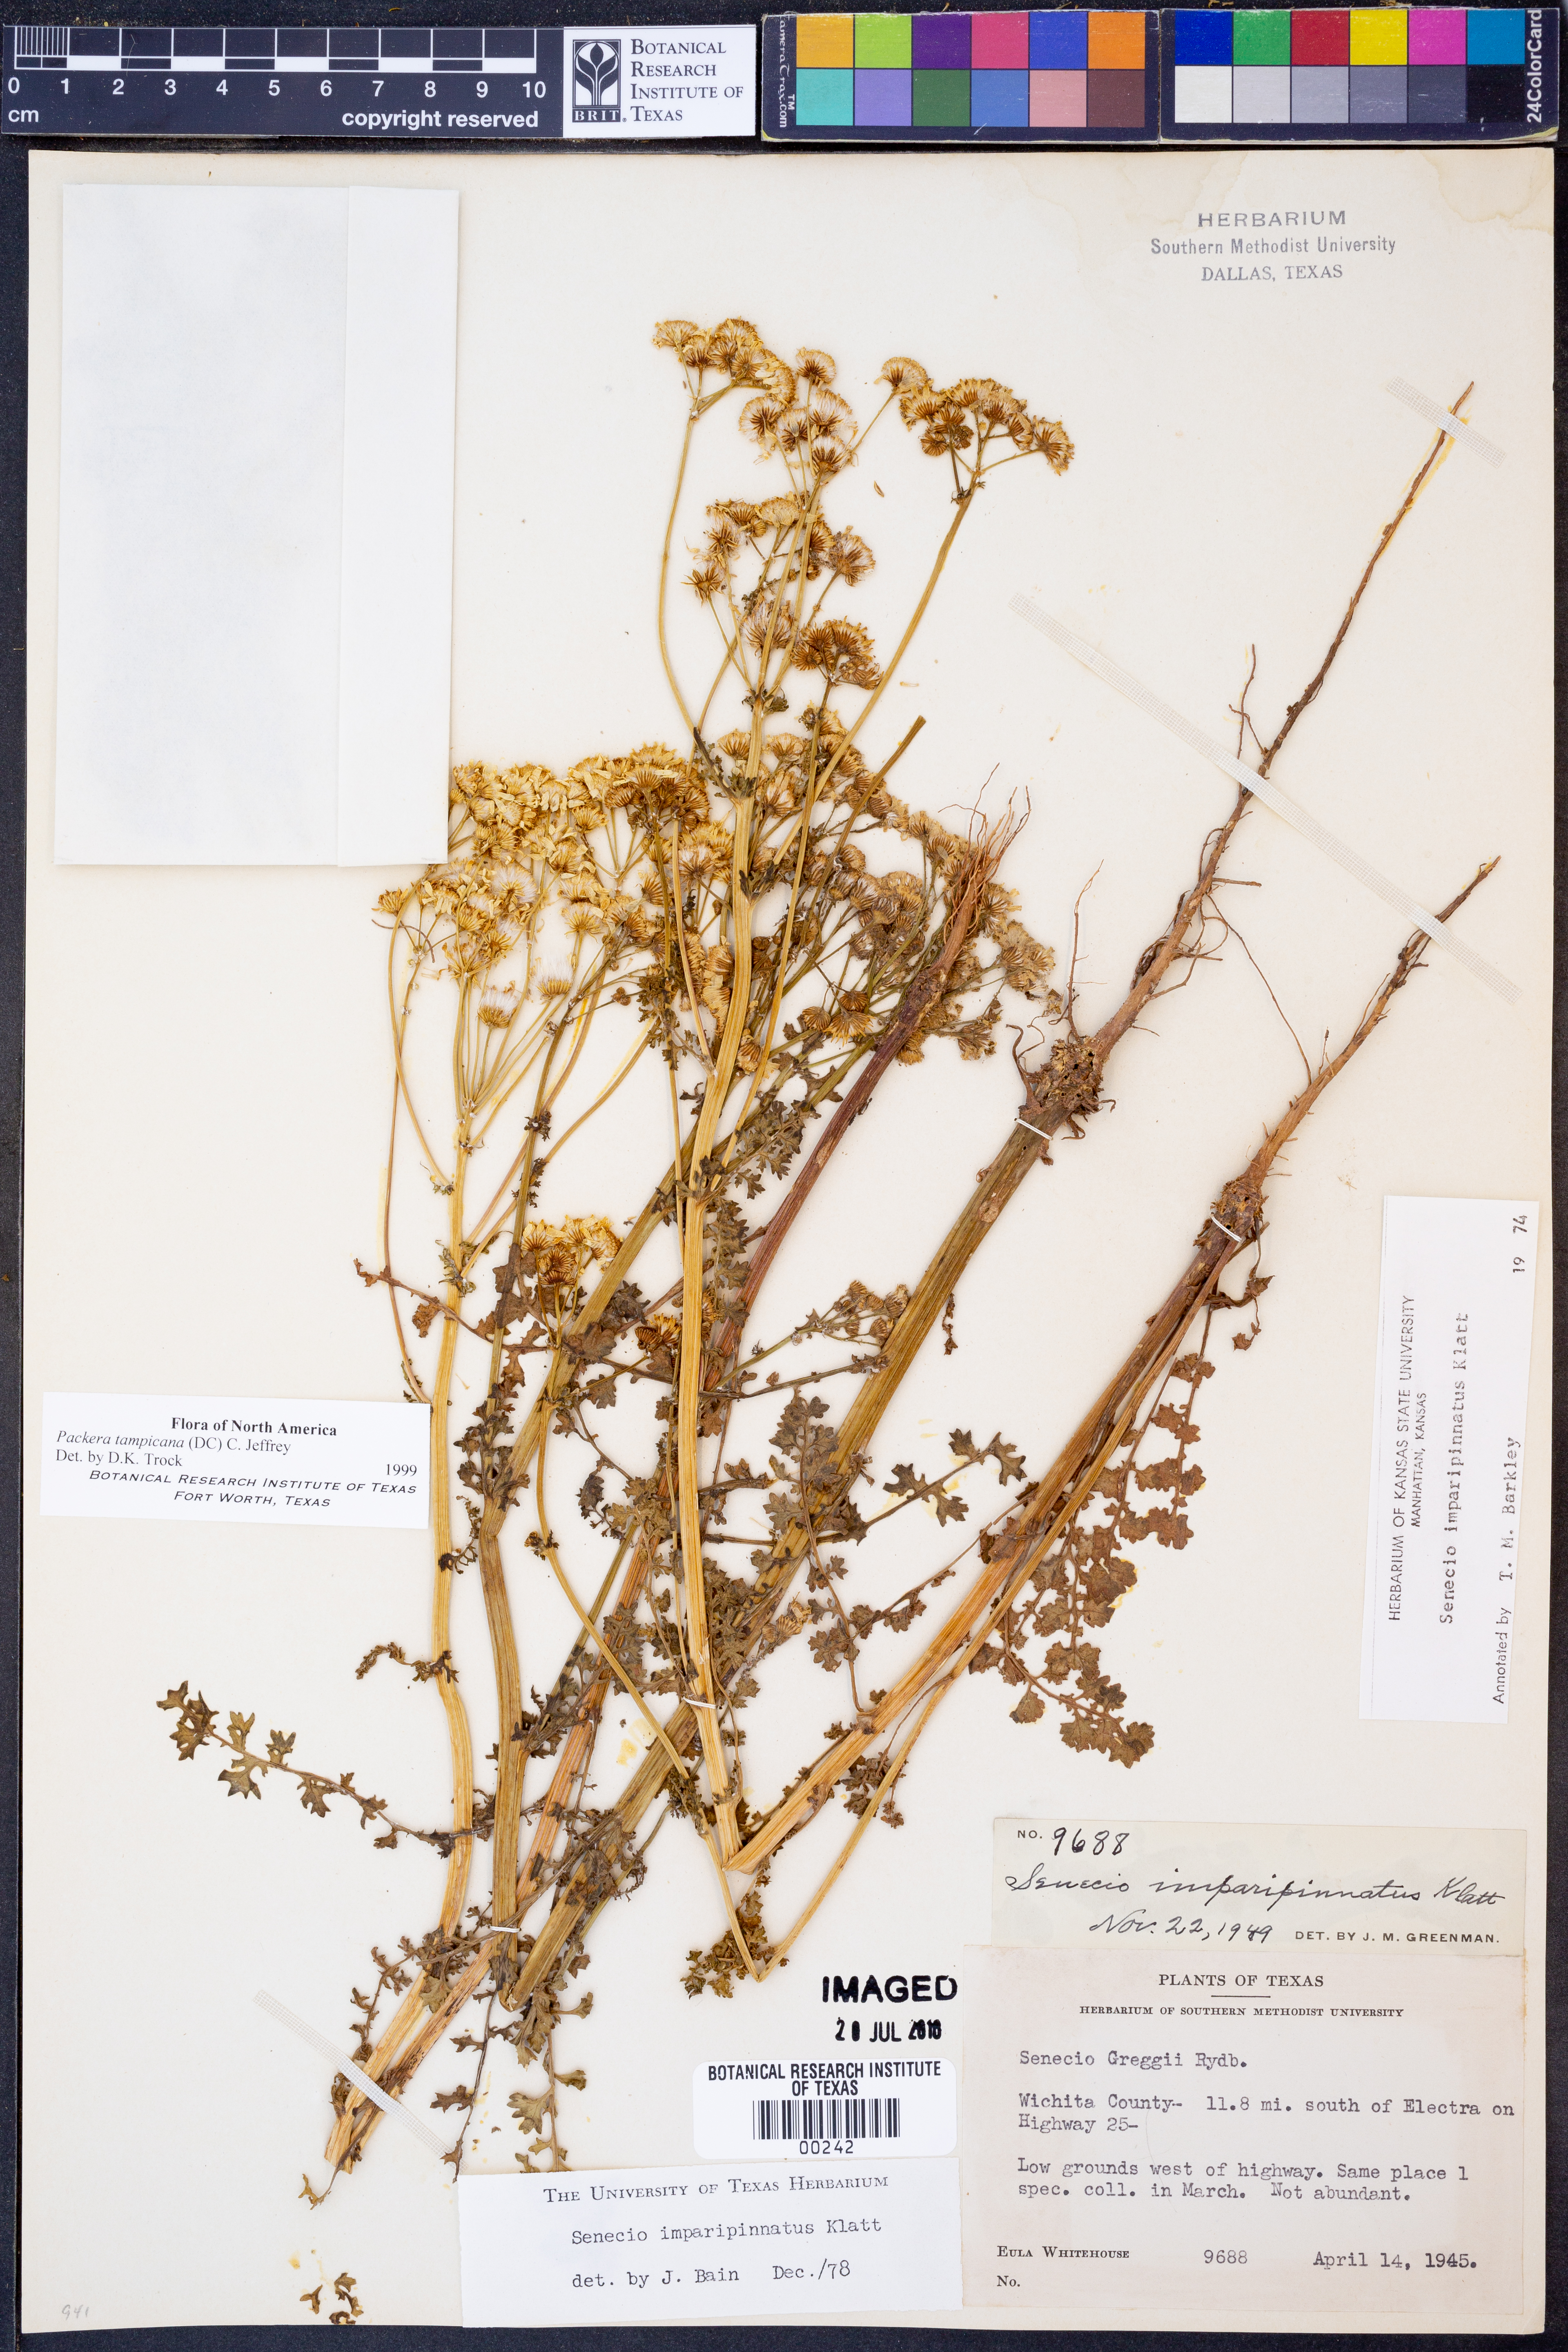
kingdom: Plantae
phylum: Tracheophyta
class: Magnoliopsida
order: Asterales
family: Asteraceae
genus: Packera
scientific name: Packera tampicana
